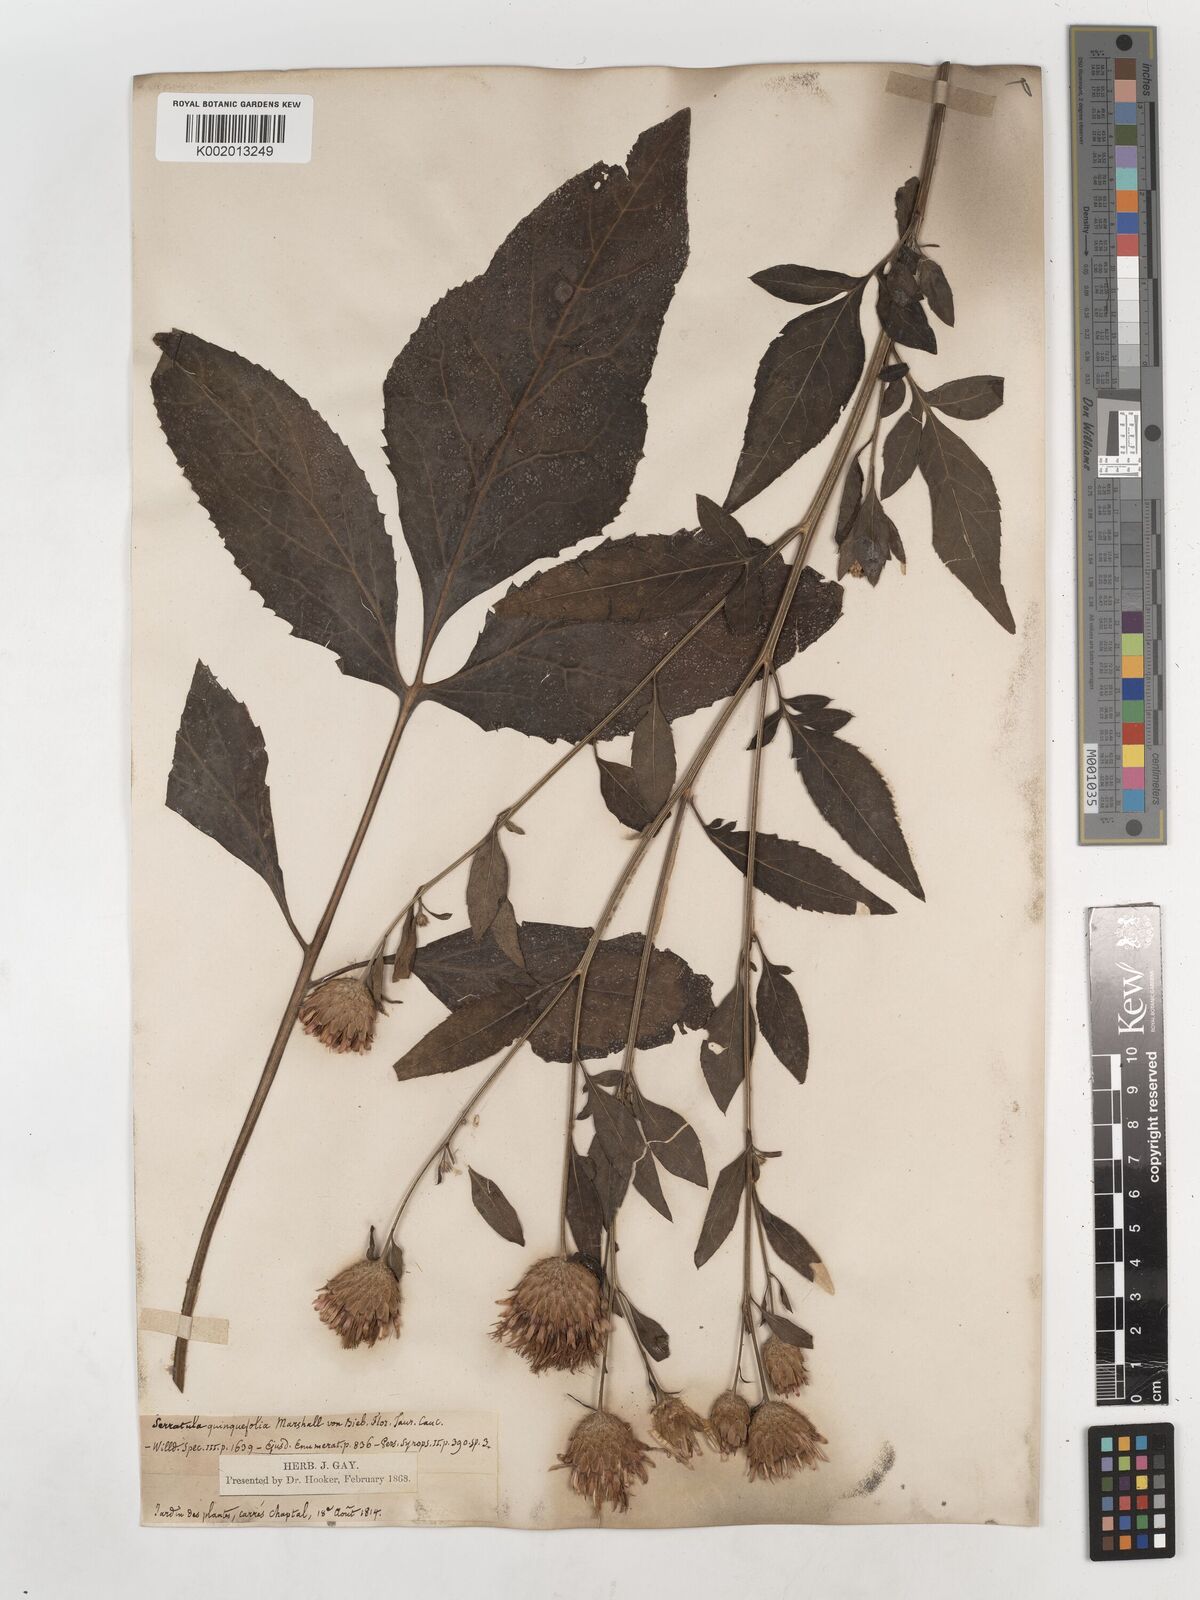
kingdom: Plantae
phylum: Tracheophyta
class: Magnoliopsida
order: Asterales
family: Asteraceae
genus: Serratula
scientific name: Serratula
